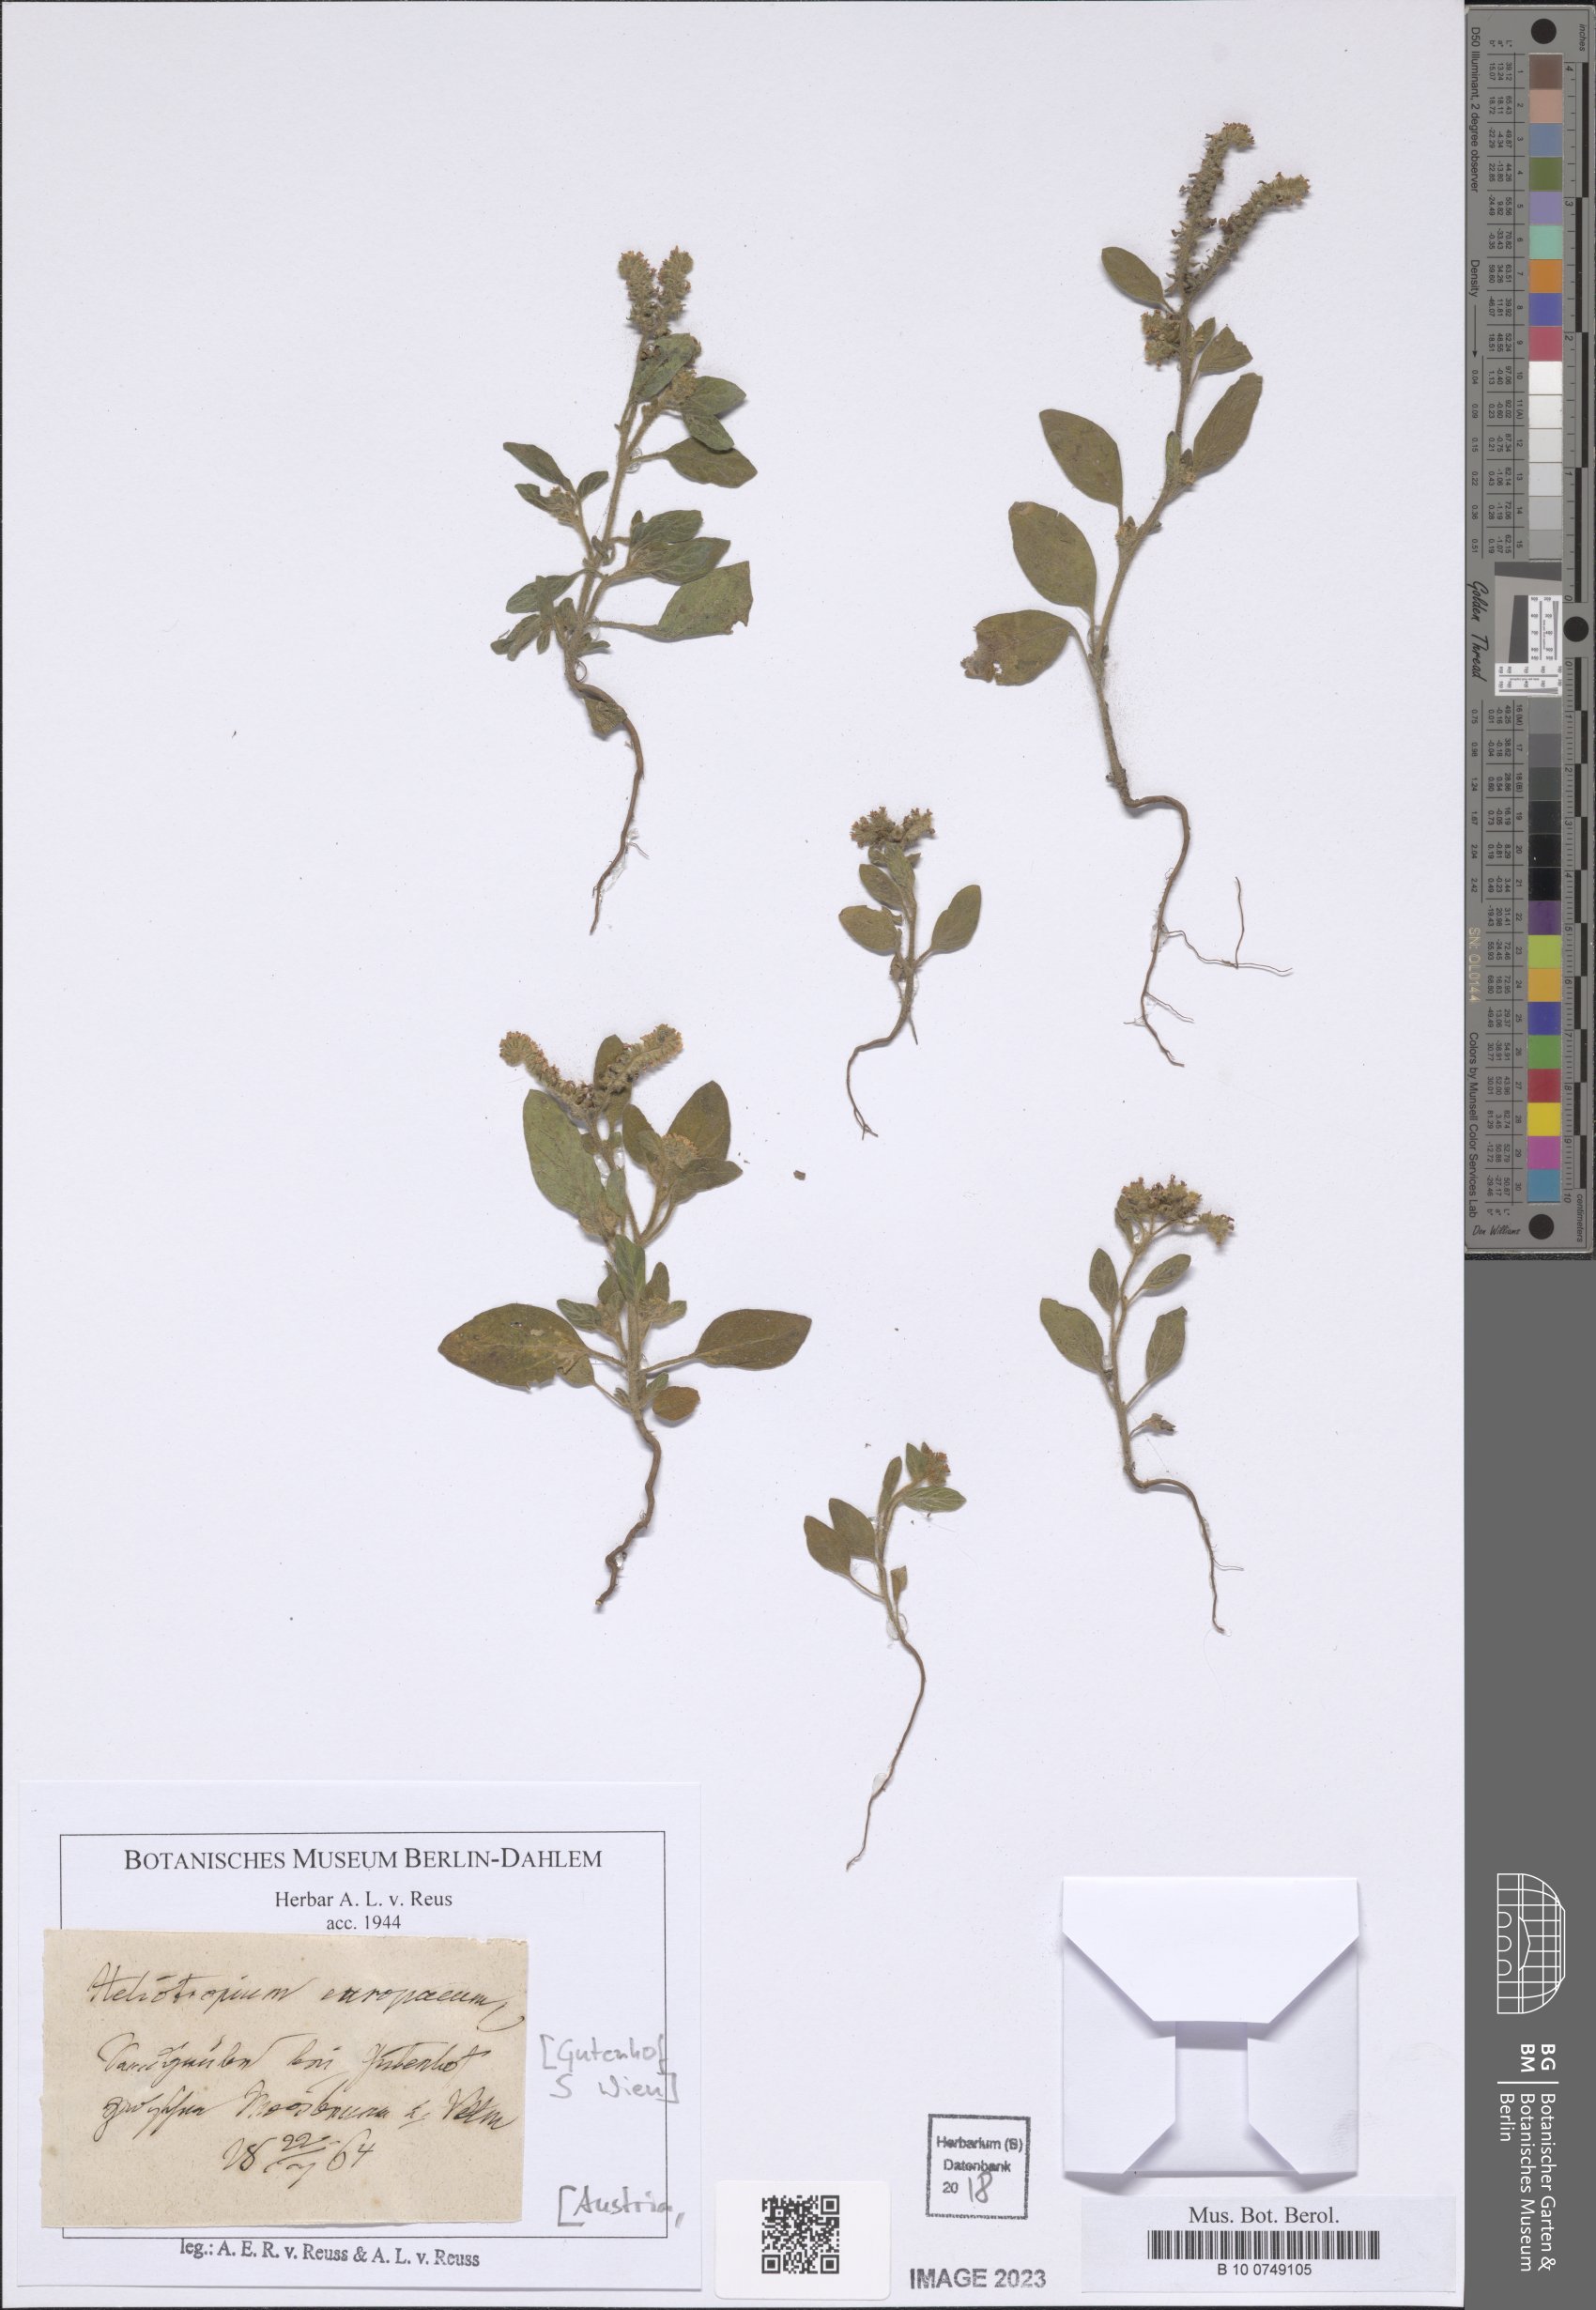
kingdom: Plantae
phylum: Tracheophyta
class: Magnoliopsida
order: Boraginales
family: Heliotropiaceae
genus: Heliotropium
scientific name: Heliotropium europaeum
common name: European heliotrope
